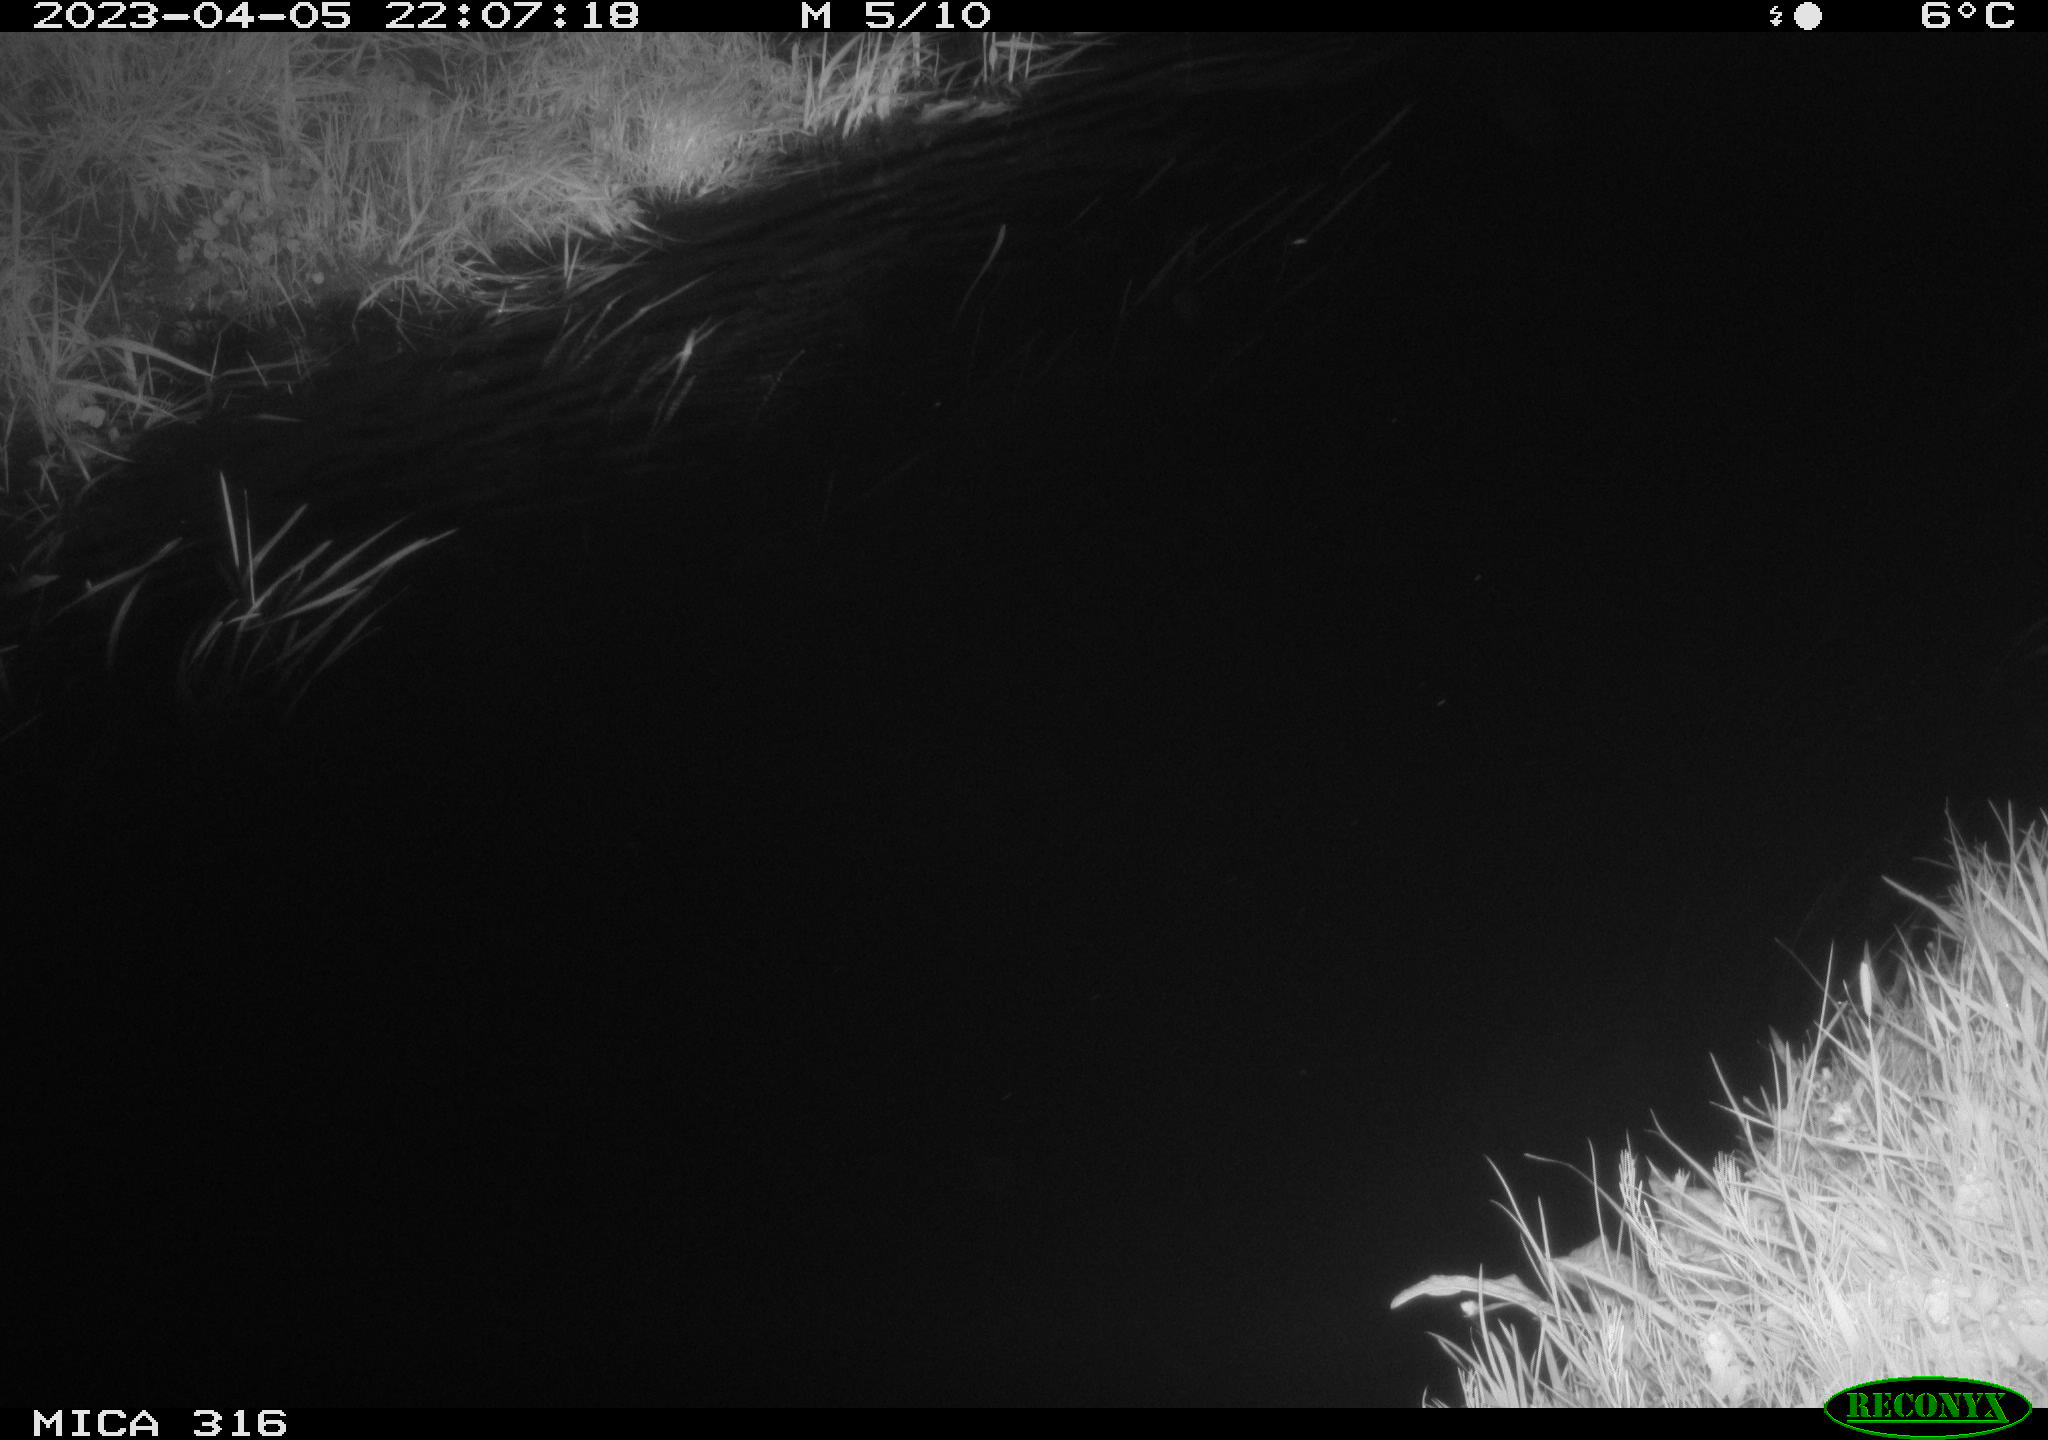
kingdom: Animalia
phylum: Chordata
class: Aves
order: Anseriformes
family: Anatidae
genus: Anas
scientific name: Anas
